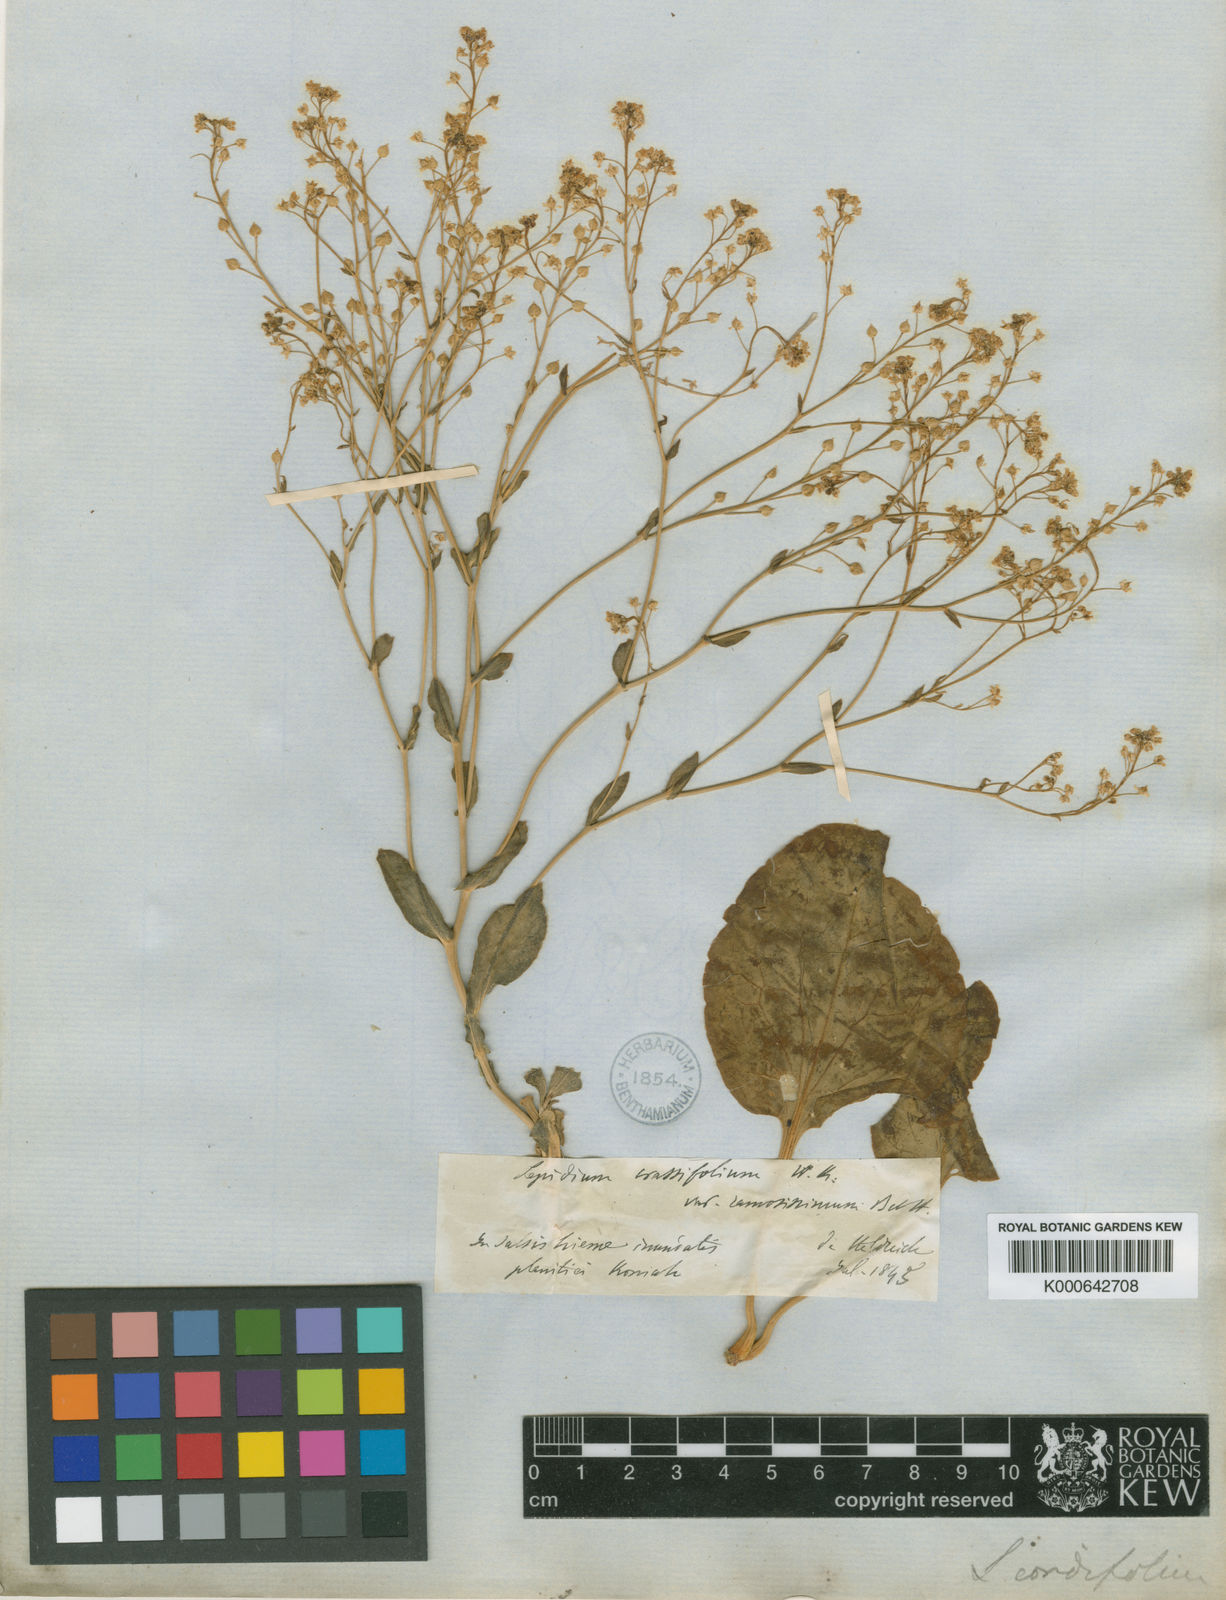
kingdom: Plantae
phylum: Tracheophyta
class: Magnoliopsida
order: Brassicales
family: Brassicaceae
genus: Lepidium
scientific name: Lepidium cartilagineum
